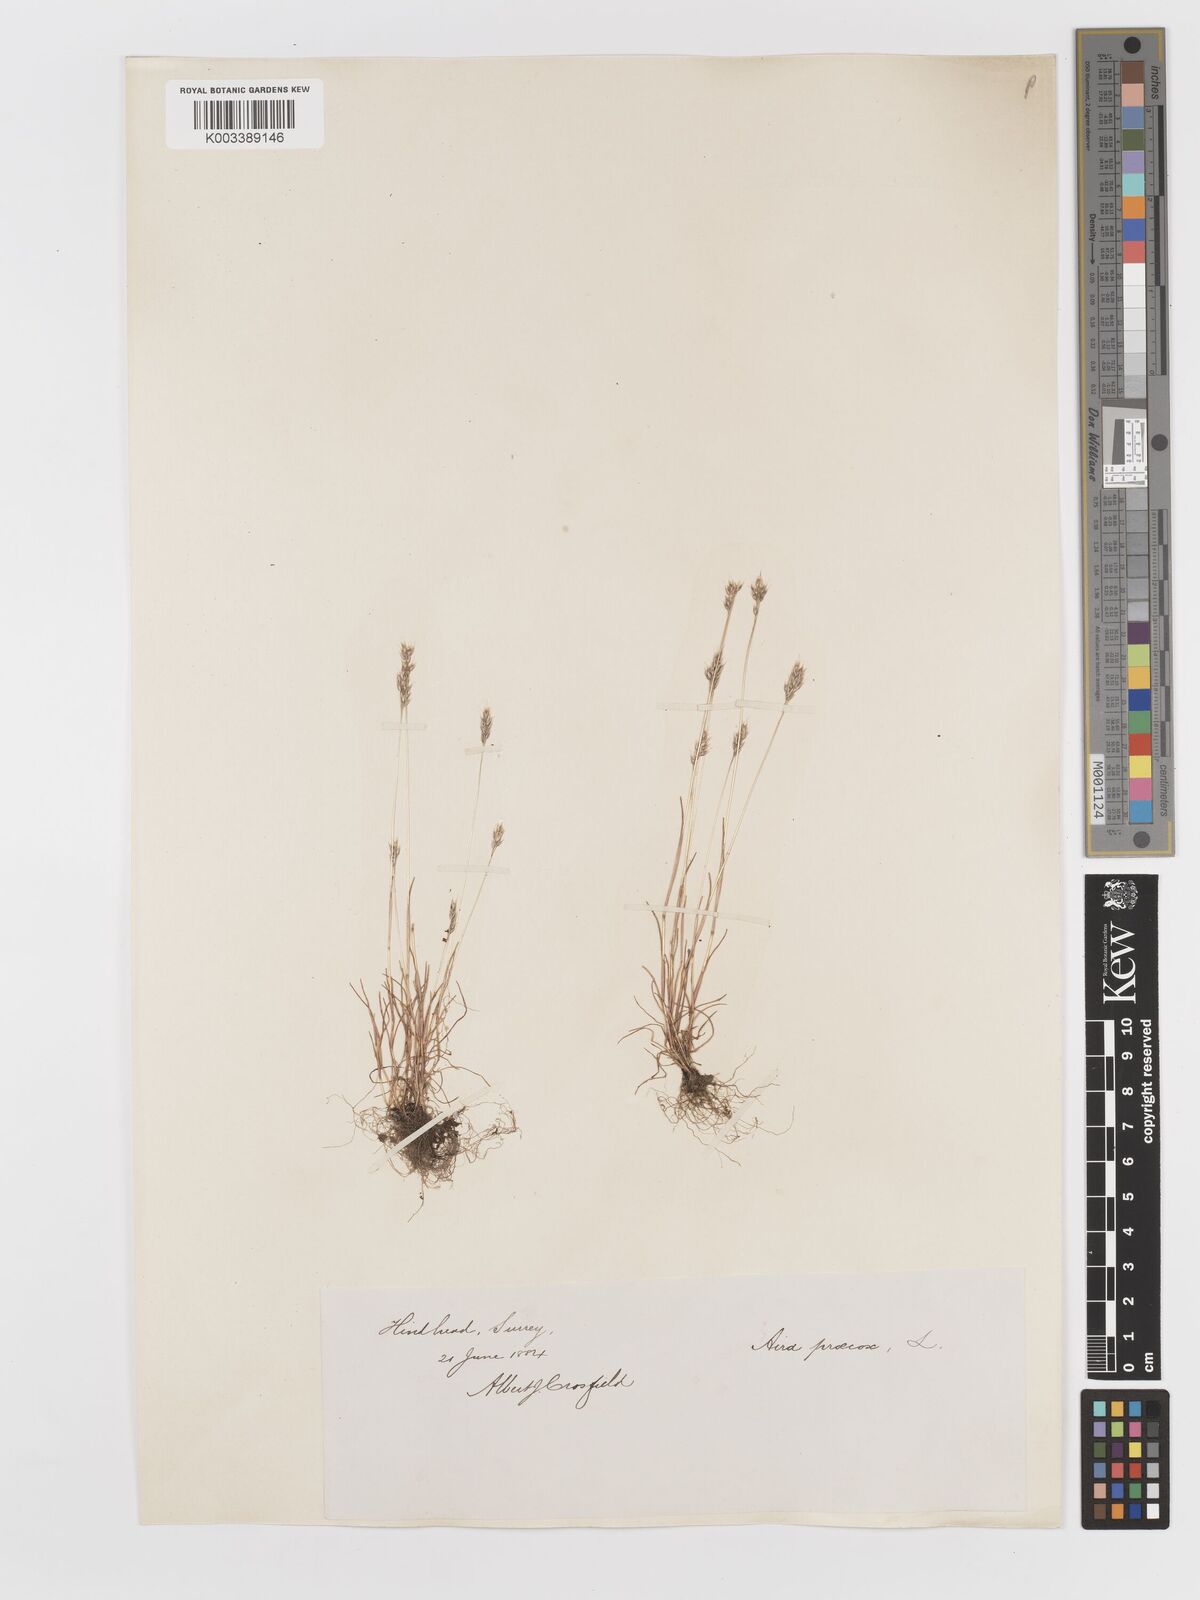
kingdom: Plantae
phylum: Tracheophyta
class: Liliopsida
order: Poales
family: Poaceae
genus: Aira
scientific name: Aira praecox
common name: Early hair-grass
